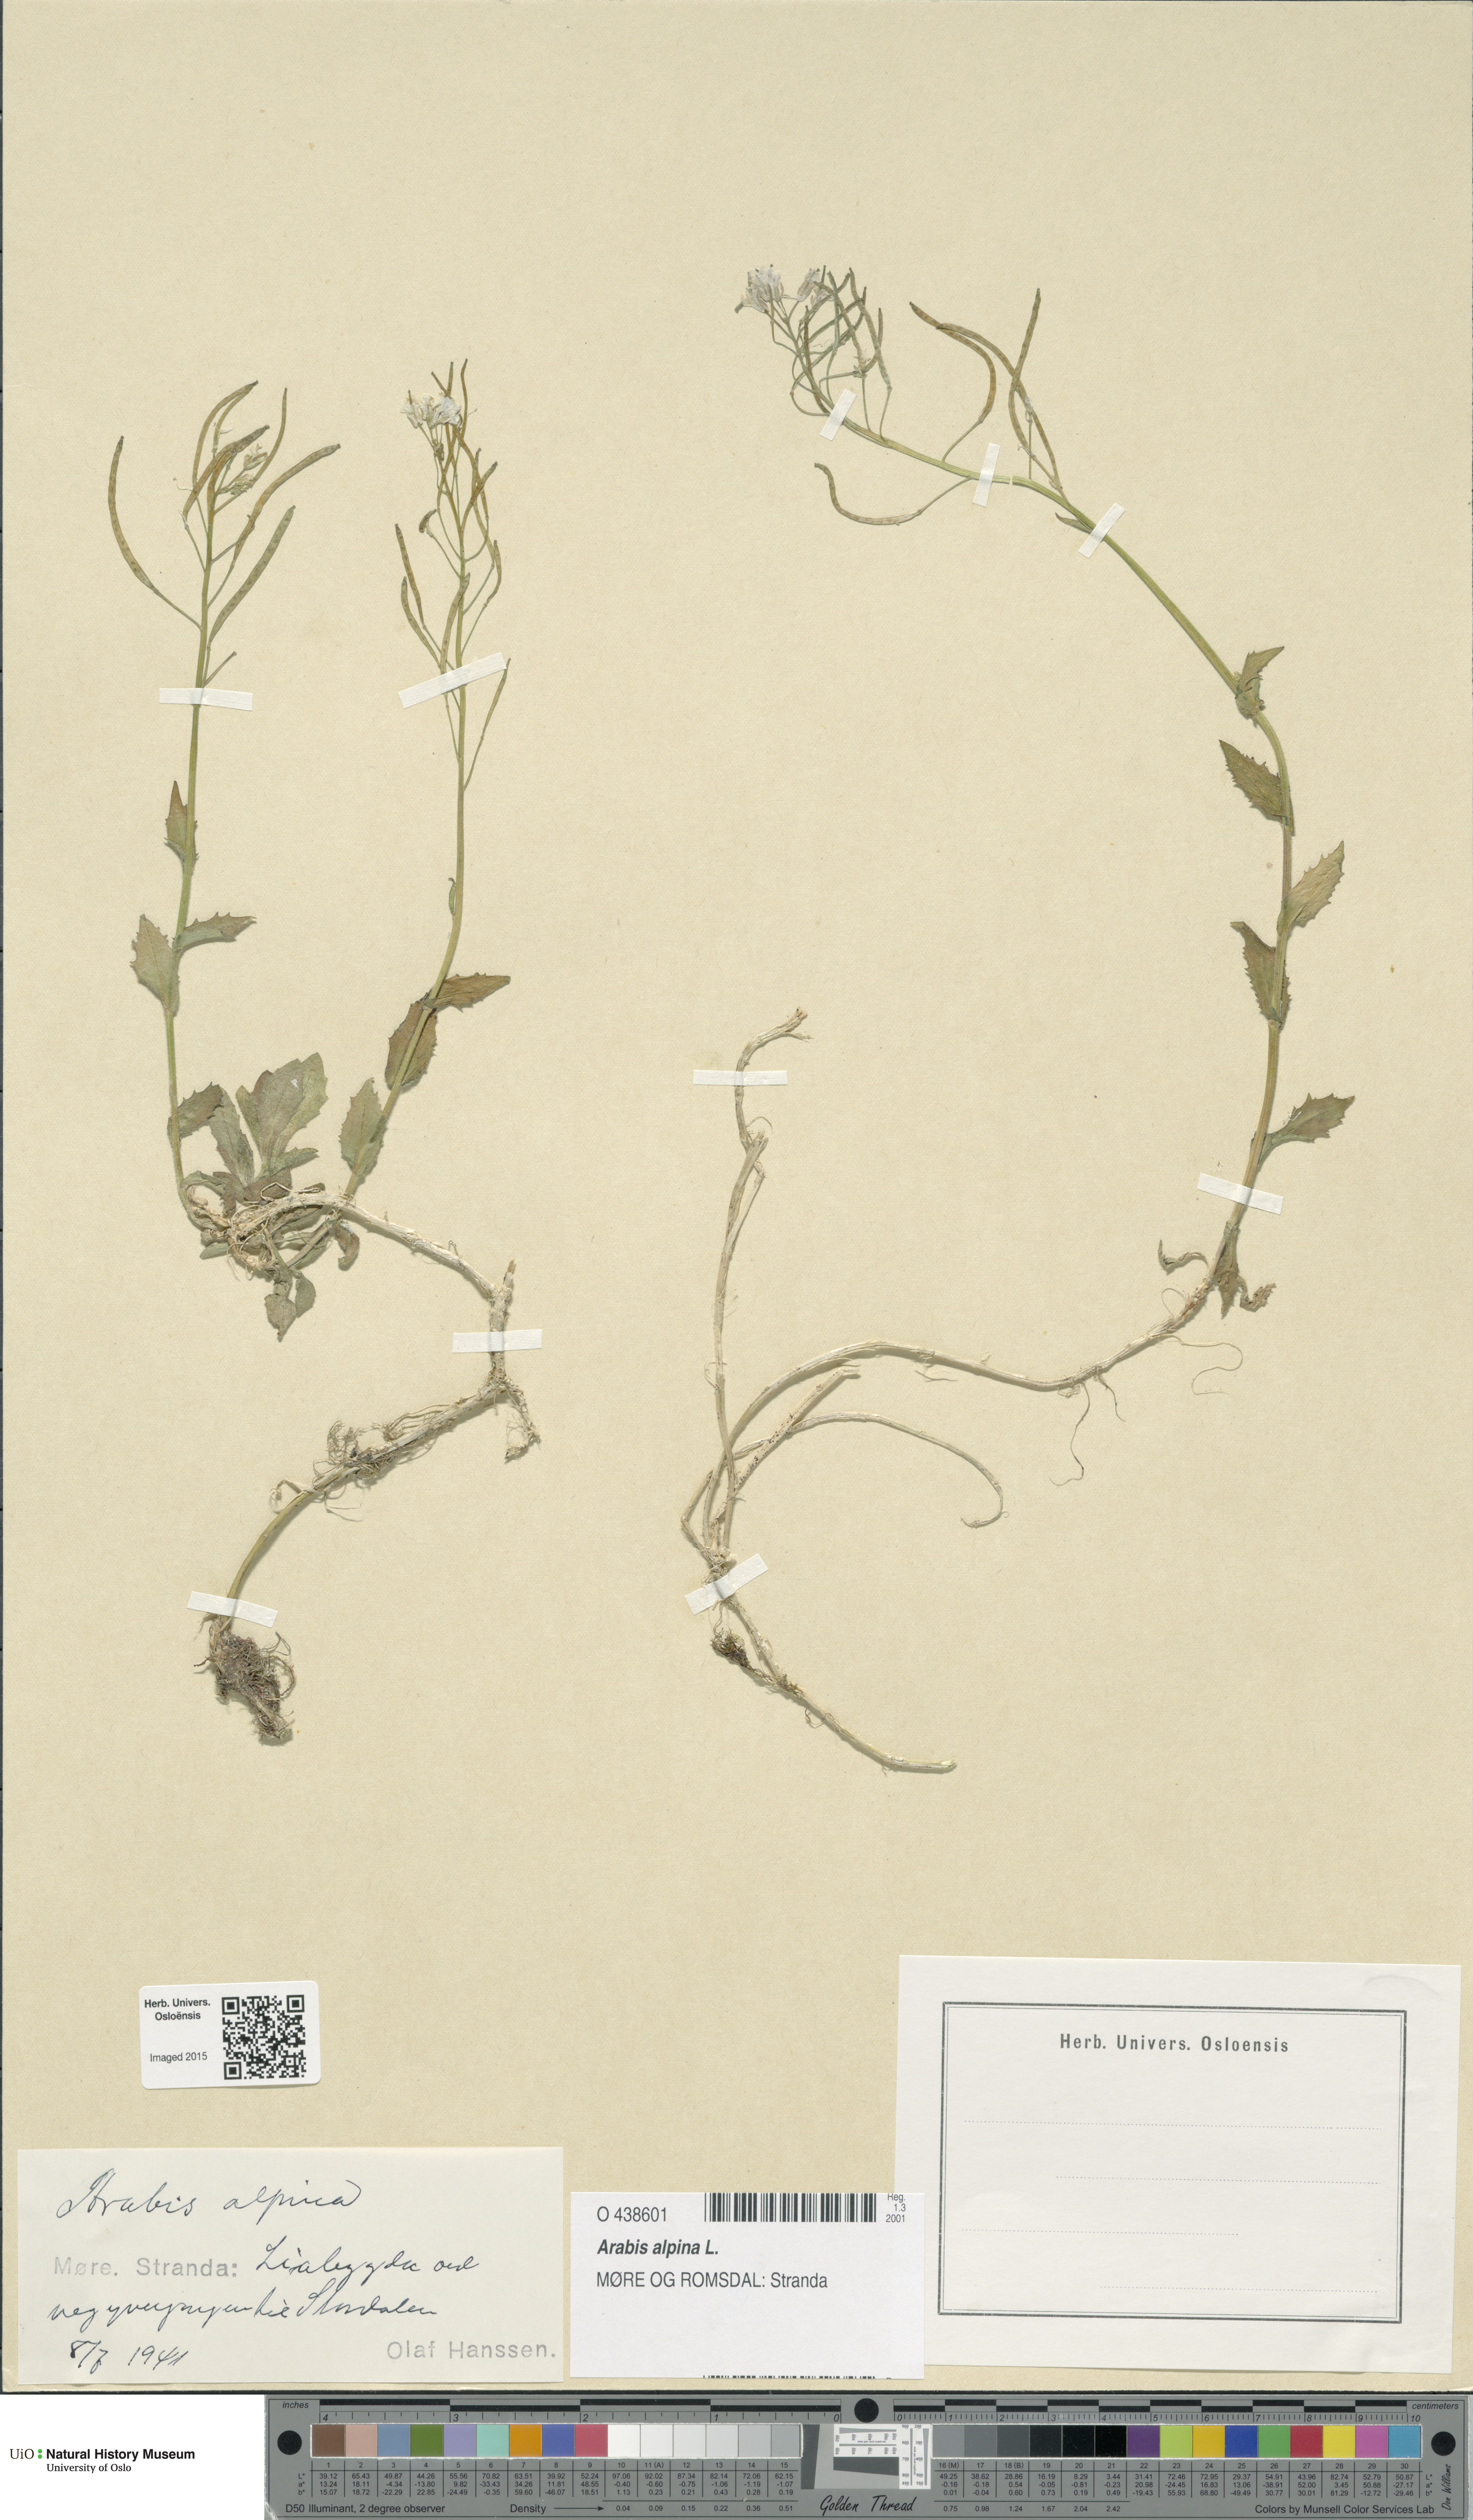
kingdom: Plantae
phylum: Tracheophyta
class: Magnoliopsida
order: Brassicales
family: Brassicaceae
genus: Arabis
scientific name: Arabis alpina
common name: Alpine rock-cress
